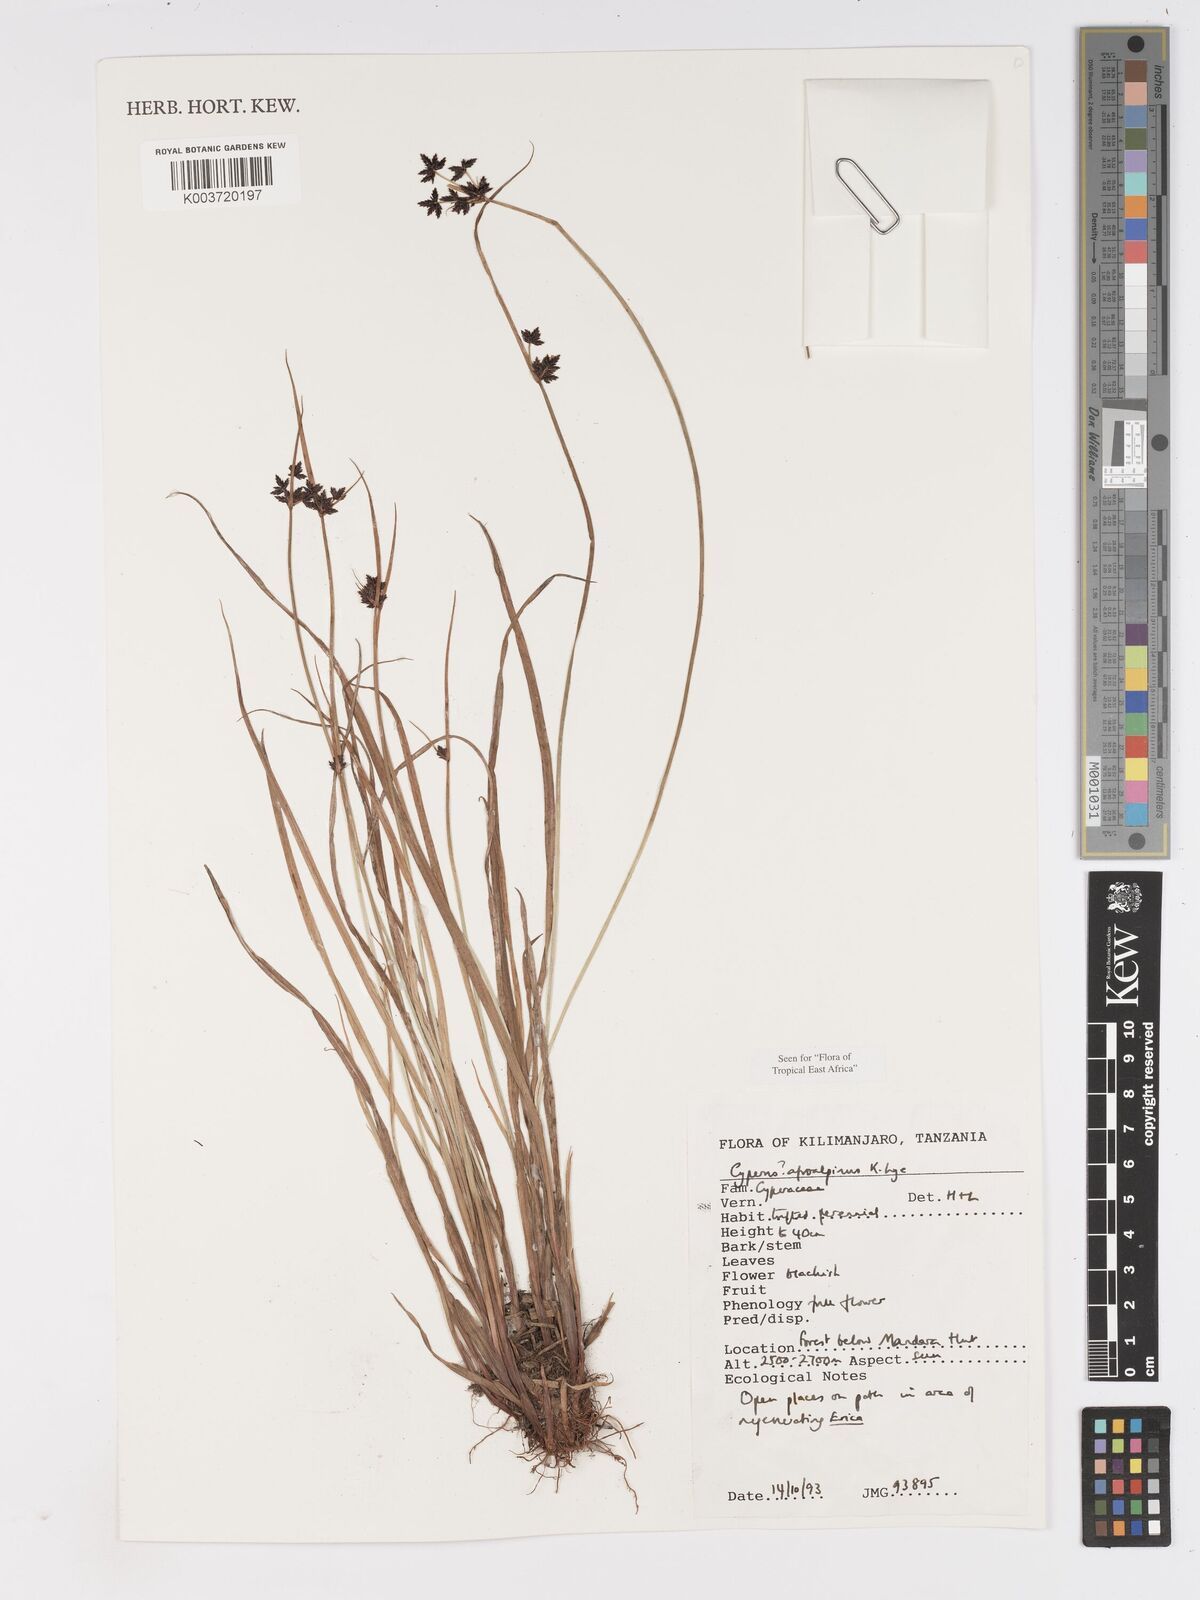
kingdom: Plantae
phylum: Tracheophyta
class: Liliopsida
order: Poales
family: Cyperaceae
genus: Cyperus
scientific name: Cyperus afroalpinus
